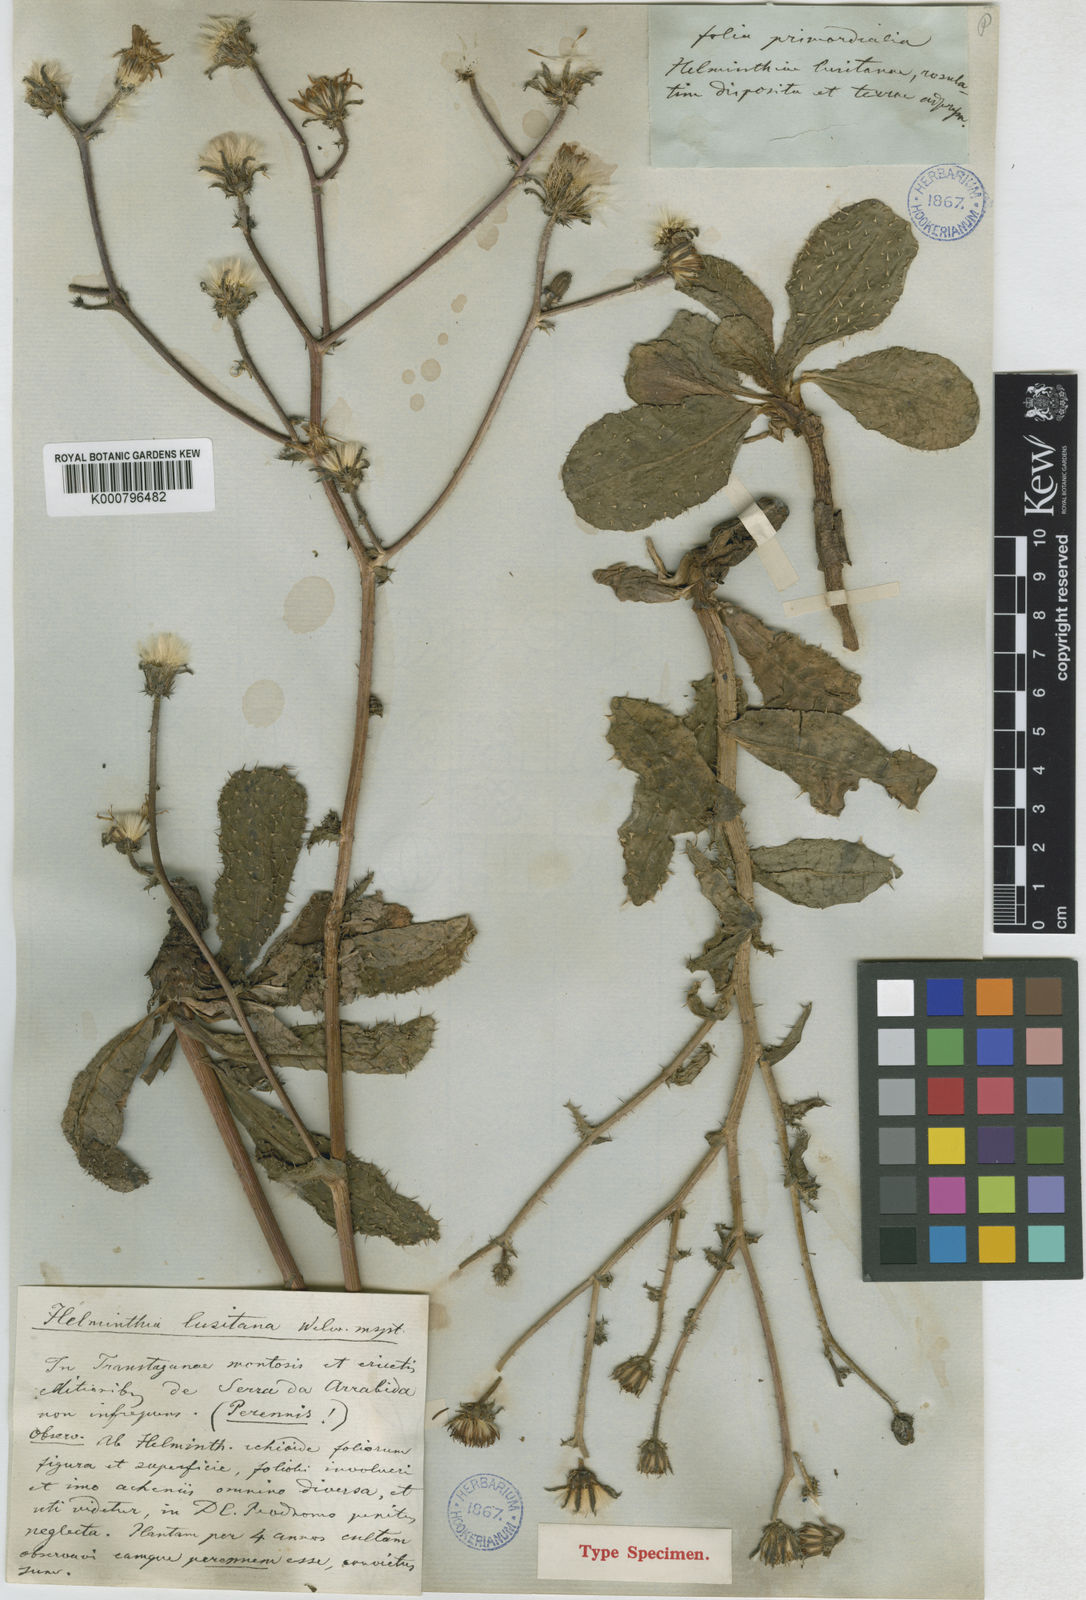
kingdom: Plantae
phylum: Tracheophyta
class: Magnoliopsida
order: Asterales
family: Asteraceae
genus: Helminthotheca
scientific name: Helminthotheca spinosa
